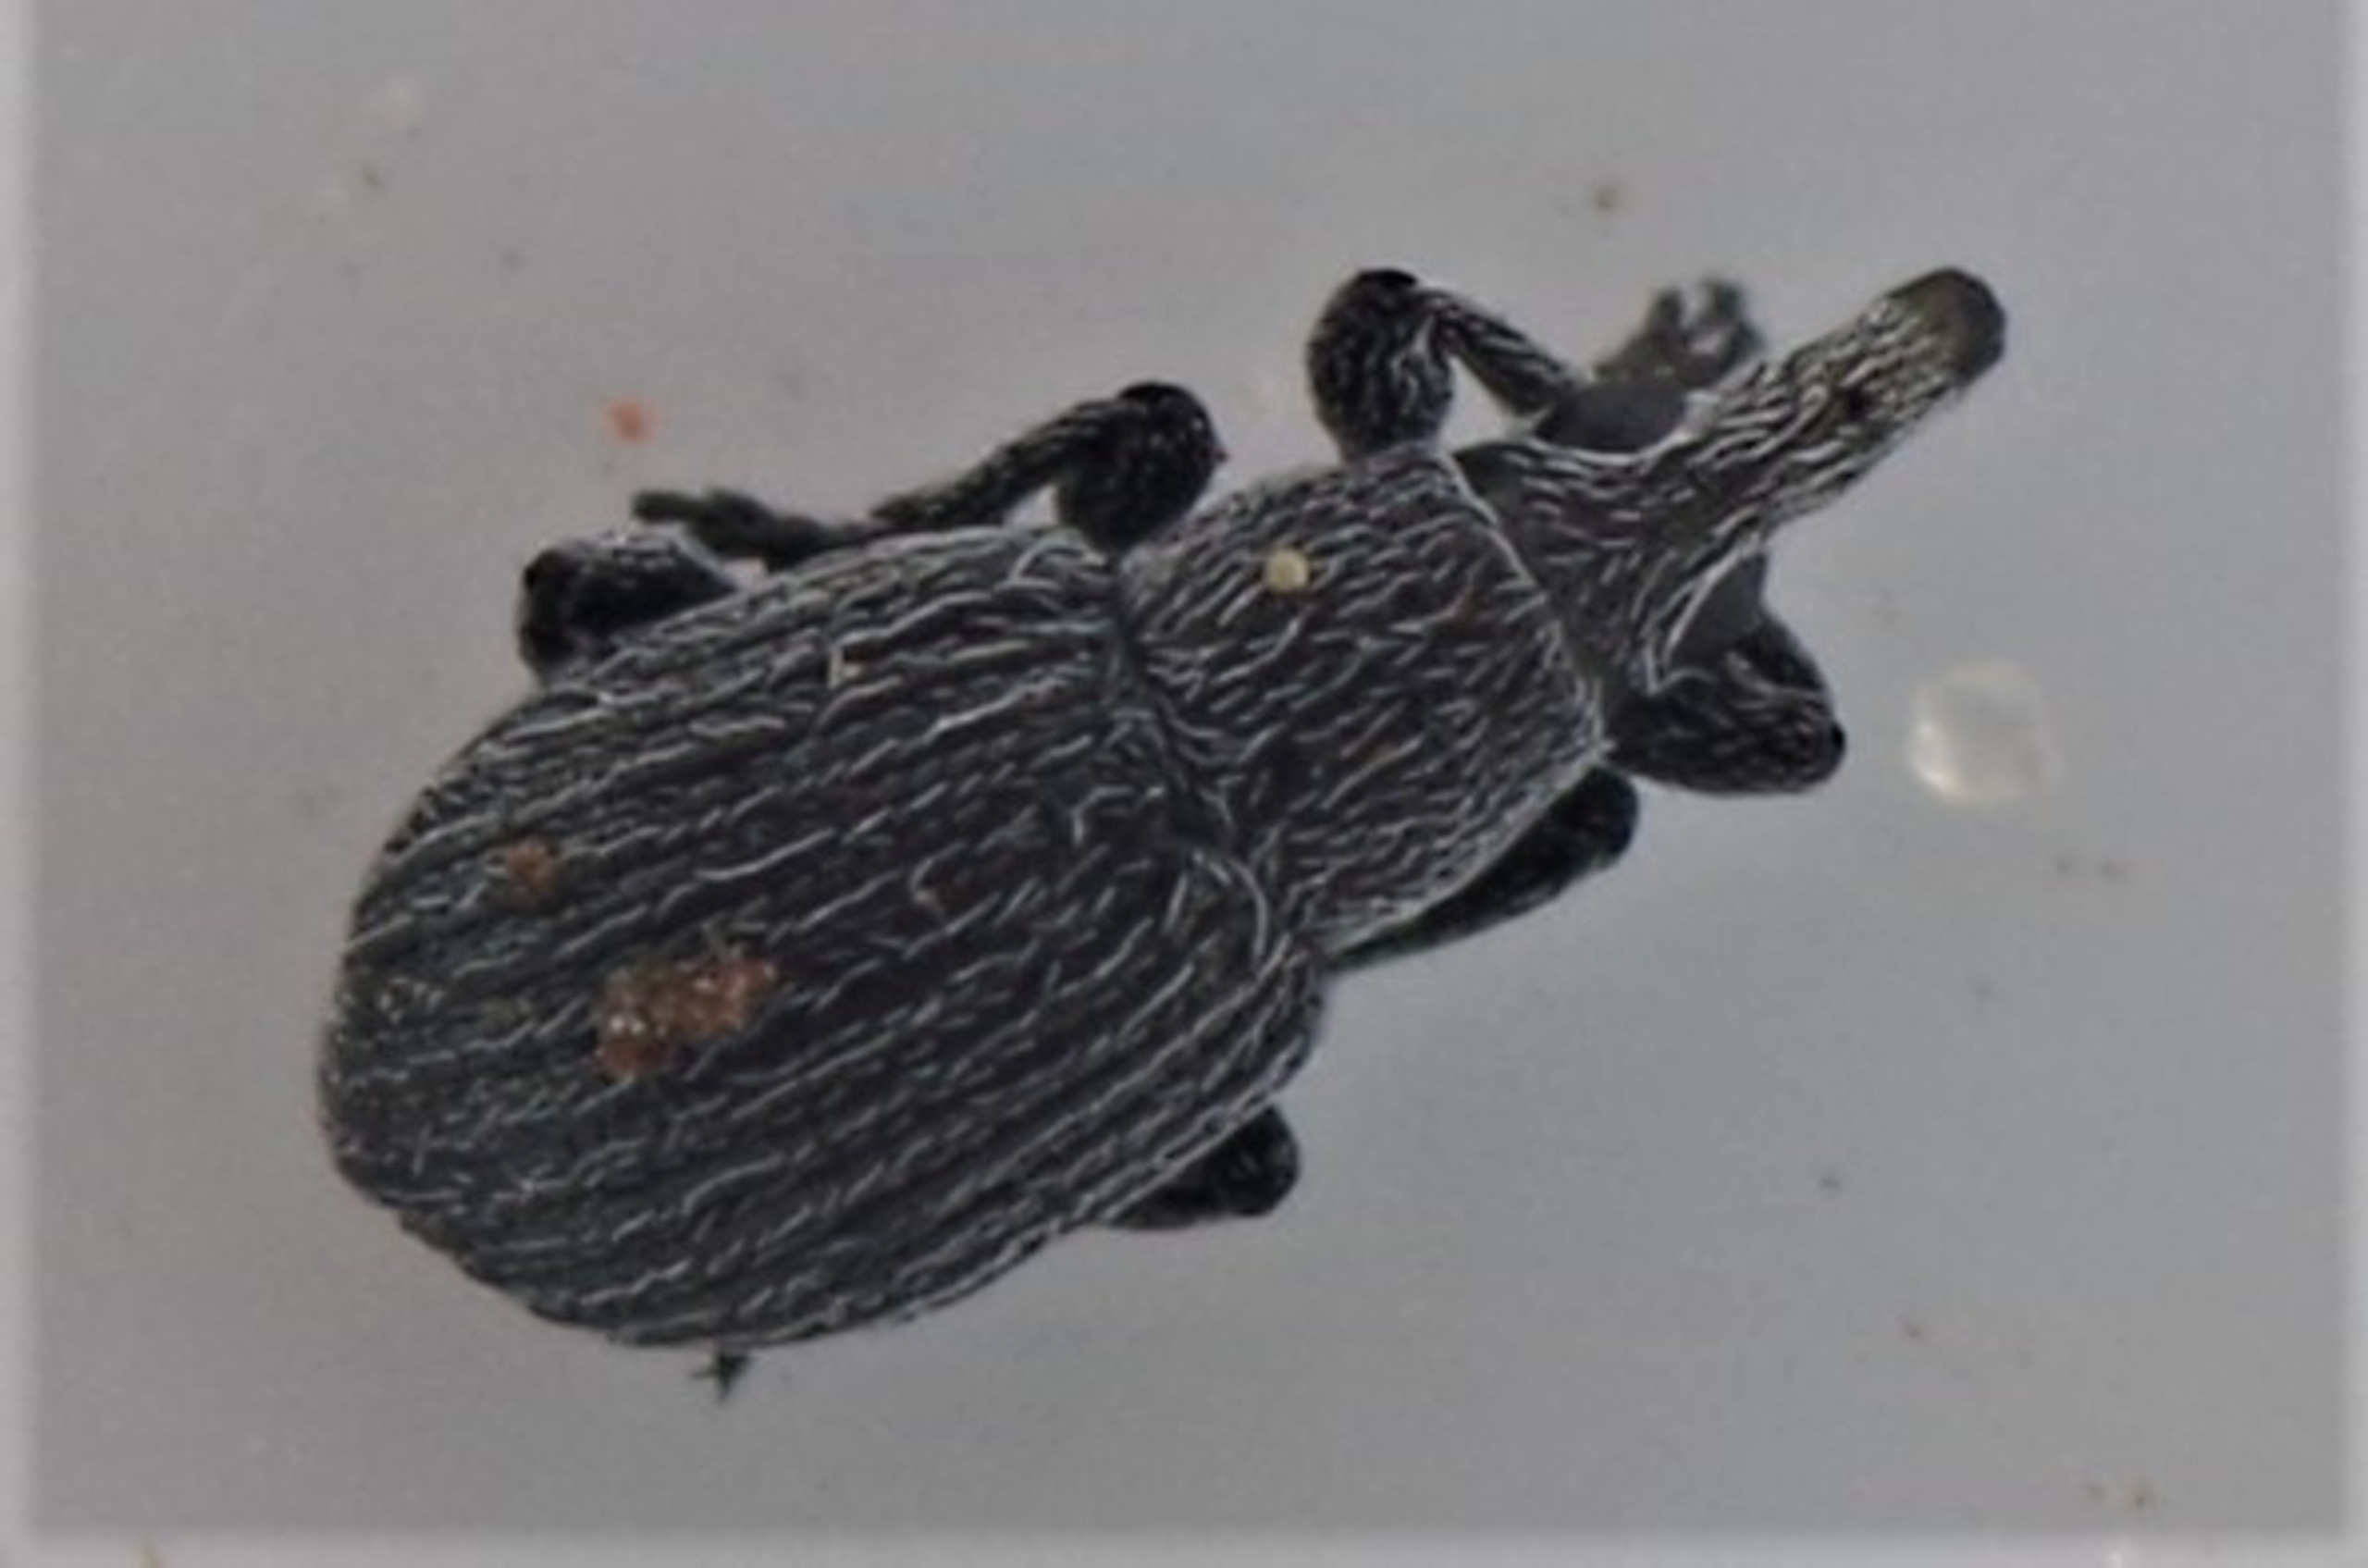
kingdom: Animalia
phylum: Arthropoda
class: Insecta
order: Coleoptera
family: Apionidae
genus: Pseudoperapion
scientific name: Pseudoperapion brevirostre
